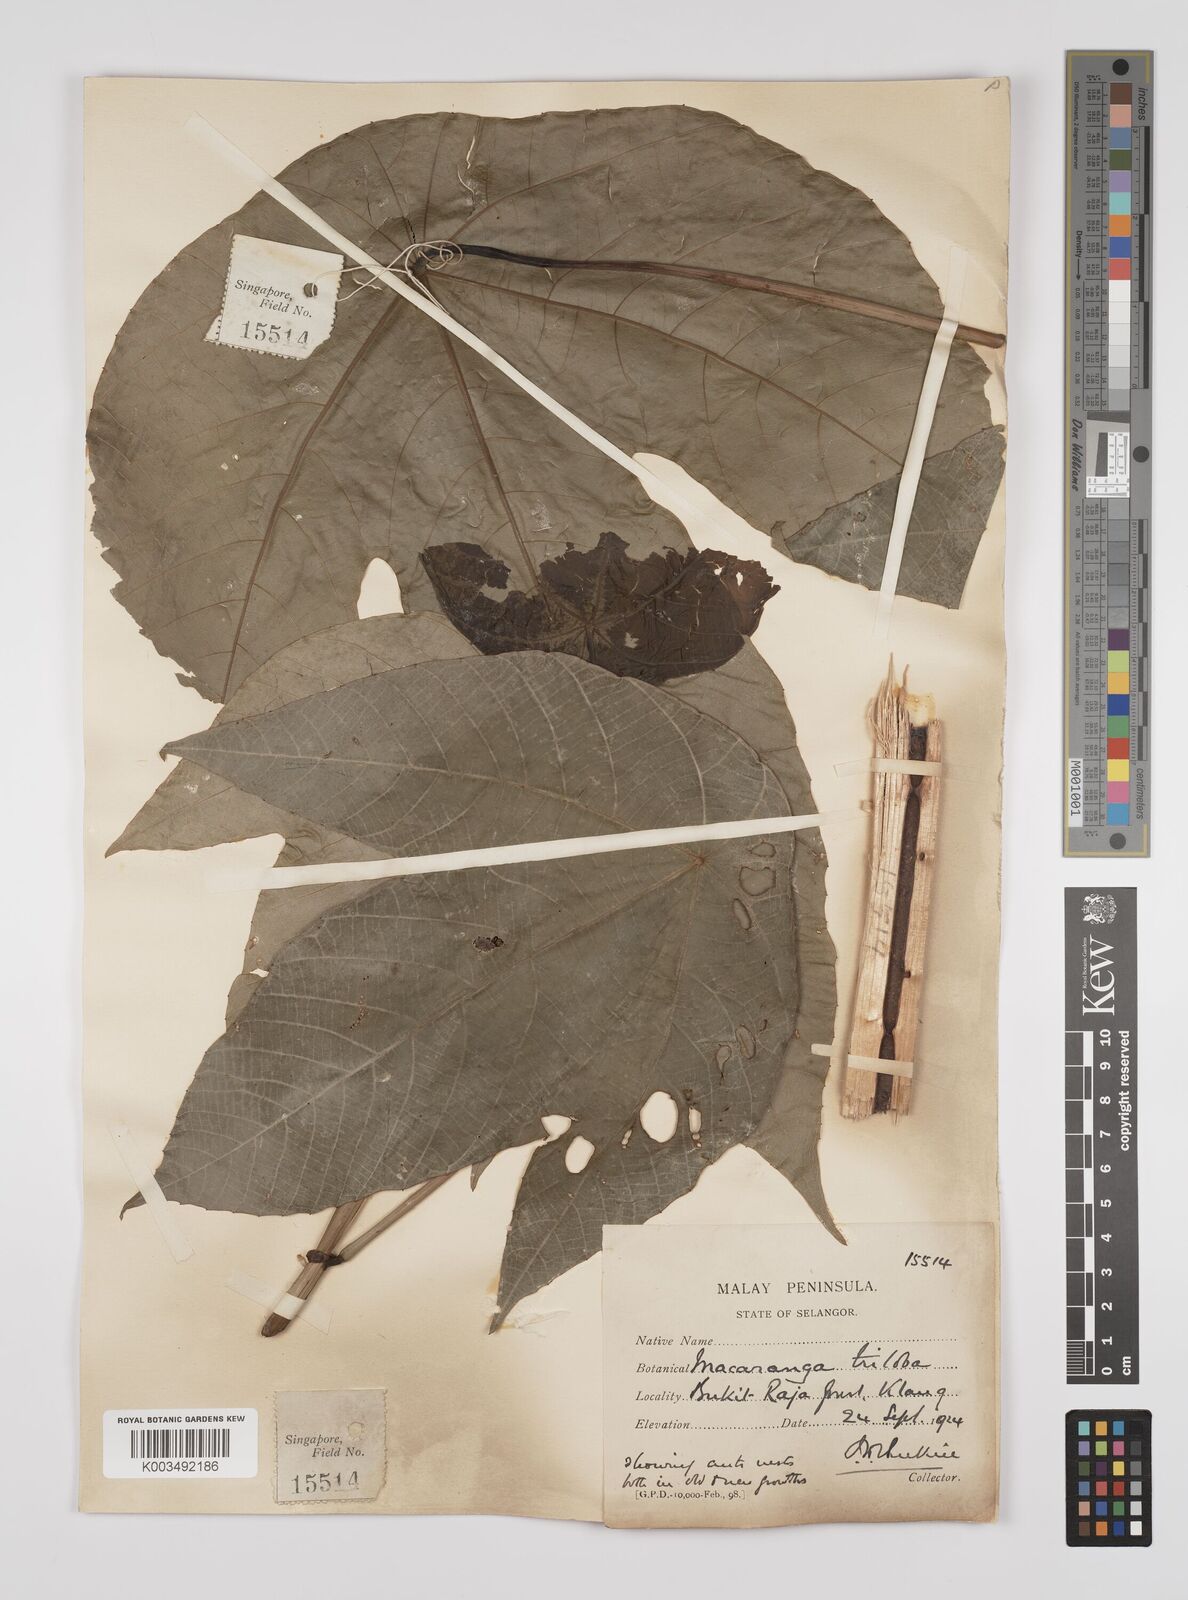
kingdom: Plantae
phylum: Tracheophyta
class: Magnoliopsida
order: Malpighiales
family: Euphorbiaceae
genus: Macaranga
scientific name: Macaranga triloba
